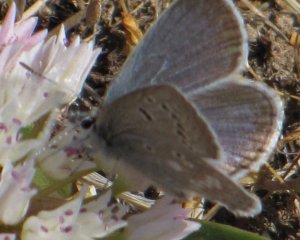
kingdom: Animalia
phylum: Arthropoda
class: Insecta
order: Lepidoptera
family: Lycaenidae
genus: Icaricia
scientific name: Icaricia icarioides
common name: Boisduval's Blue
